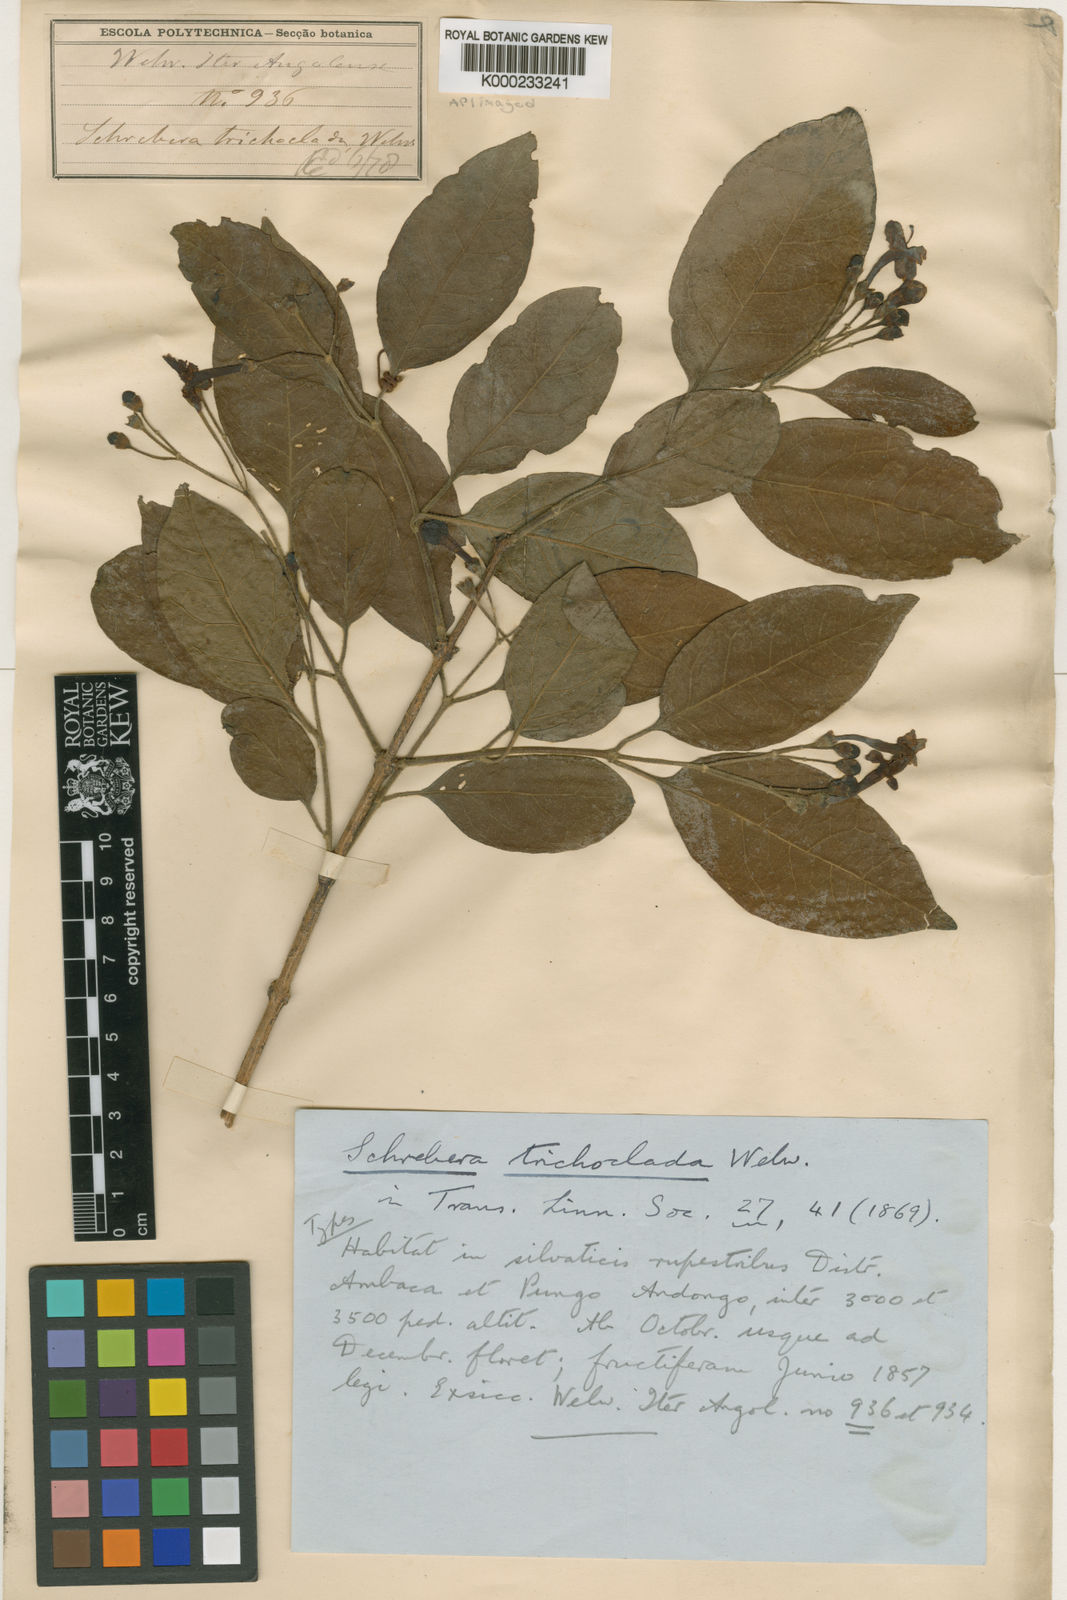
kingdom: Plantae
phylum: Tracheophyta
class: Magnoliopsida
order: Lamiales
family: Oleaceae
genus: Schrebera
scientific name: Schrebera trichoclada
